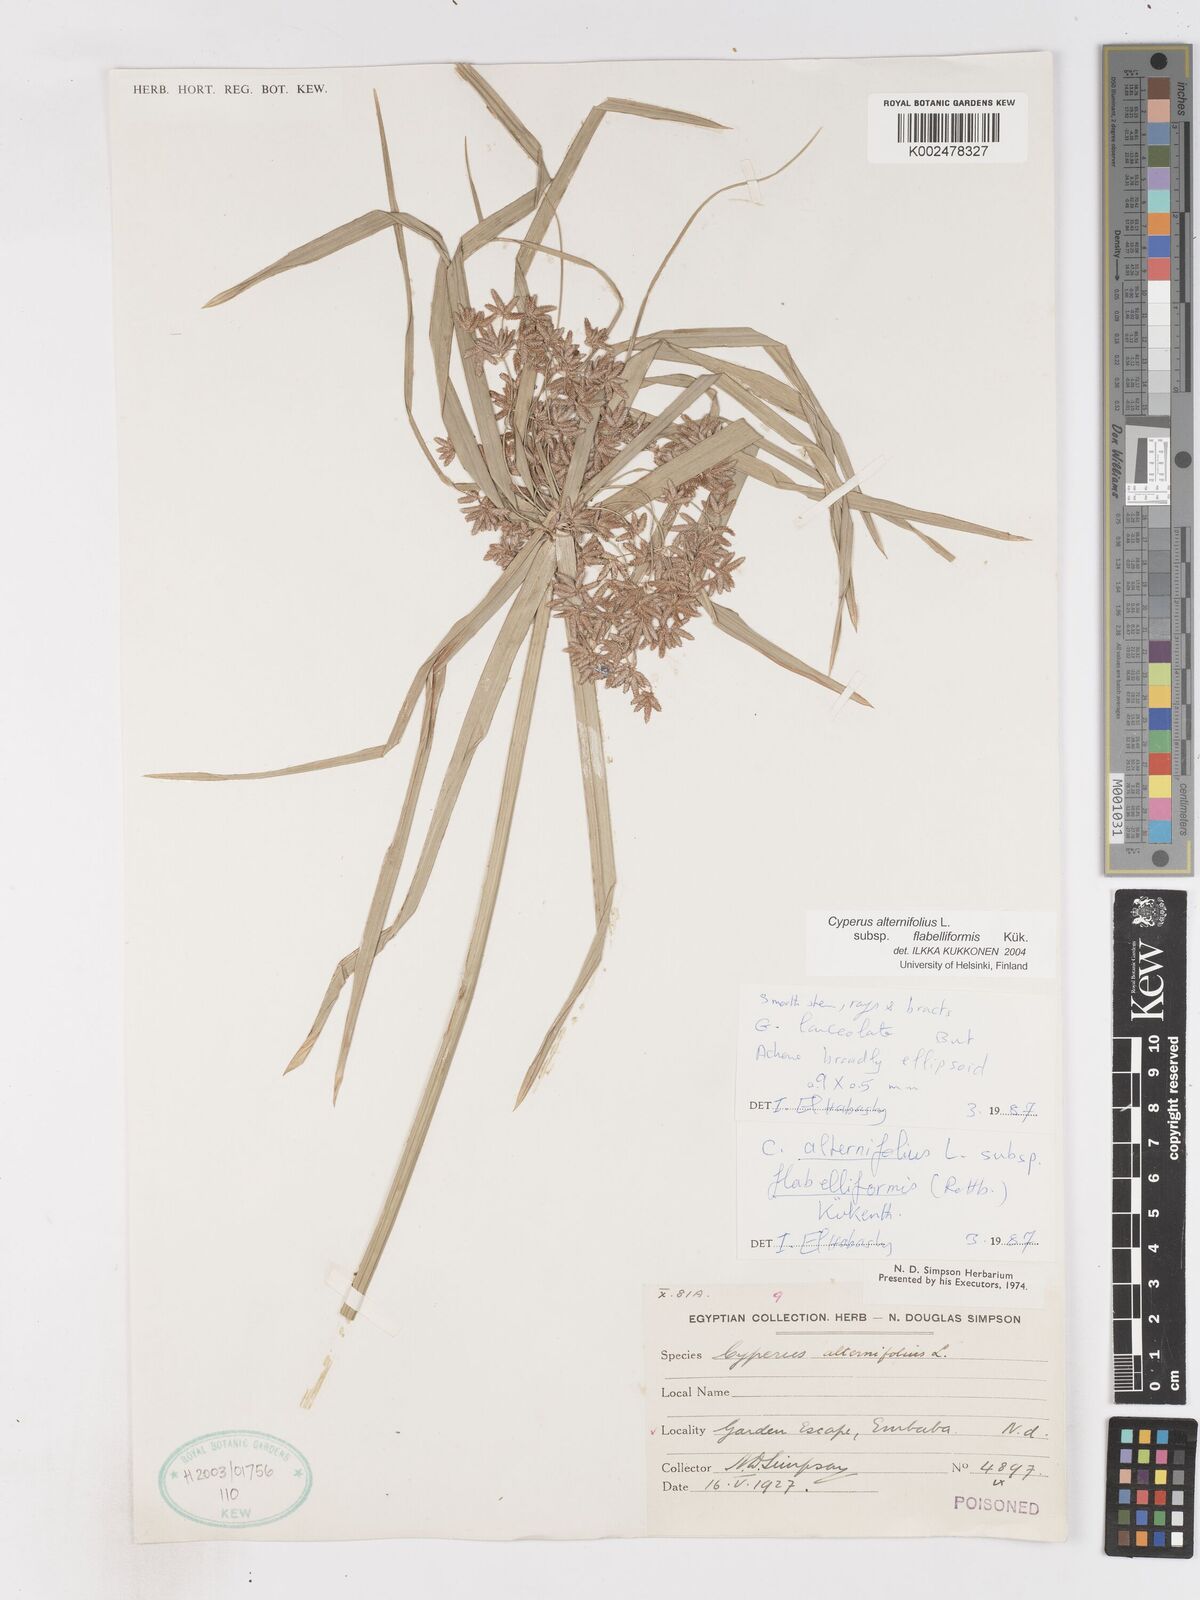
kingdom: Plantae
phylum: Tracheophyta
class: Liliopsida
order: Poales
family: Cyperaceae
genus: Cyperus
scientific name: Cyperus alternifolius
